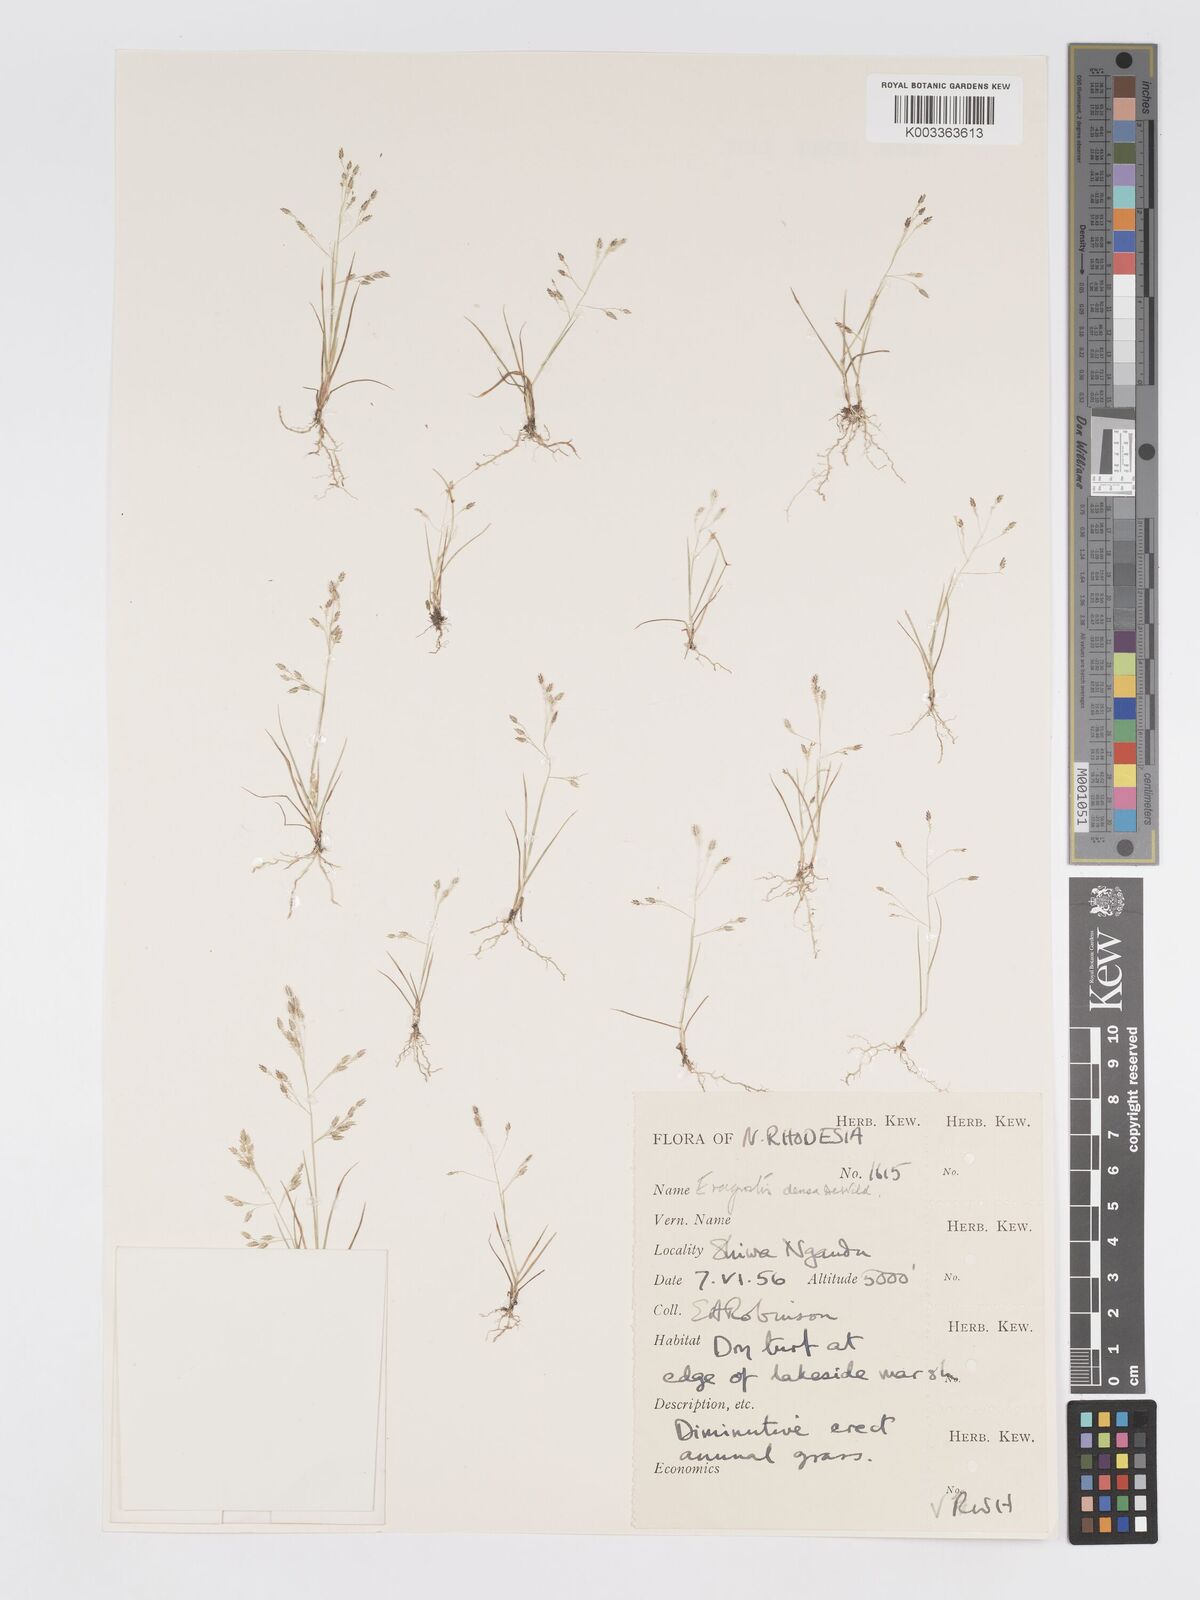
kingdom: Plantae
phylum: Tracheophyta
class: Liliopsida
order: Poales
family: Poaceae
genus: Eragrostis
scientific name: Eragrostis welwitschii
